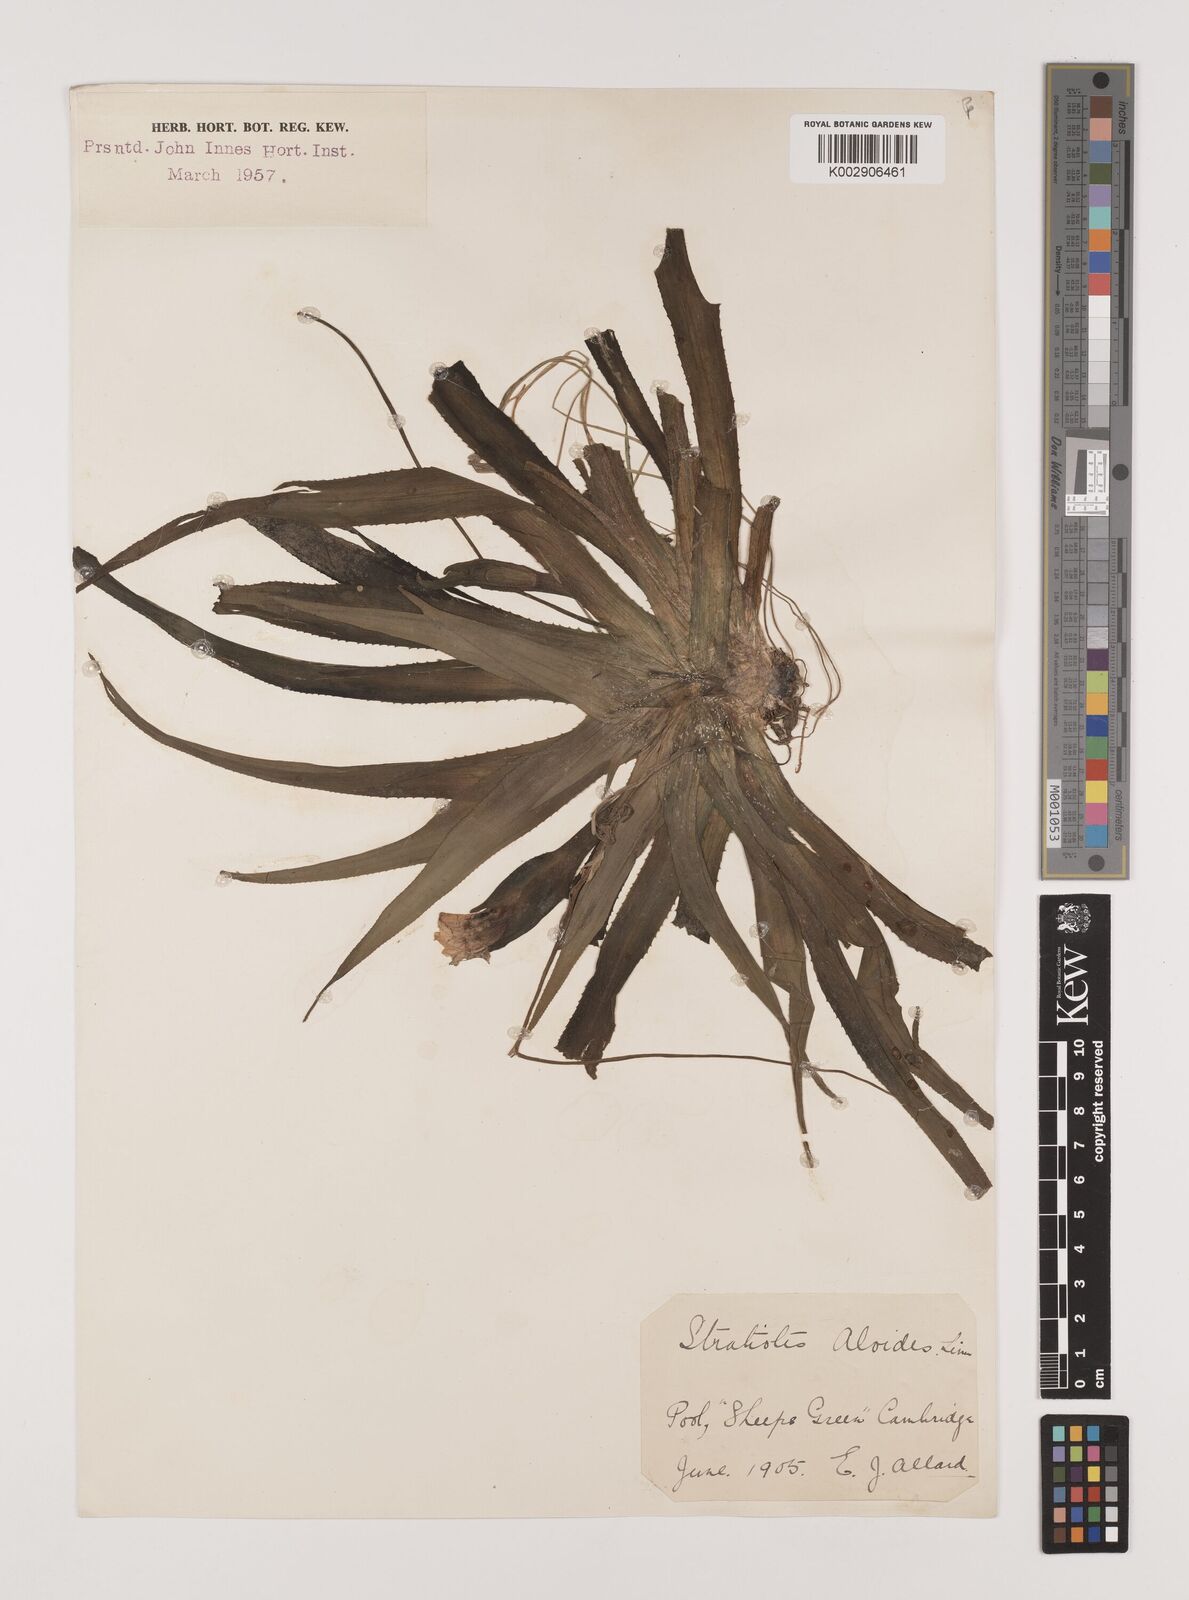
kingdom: Plantae
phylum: Tracheophyta
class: Liliopsida
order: Alismatales
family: Hydrocharitaceae
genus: Stratiotes
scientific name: Stratiotes aloides
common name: Water-soldier
